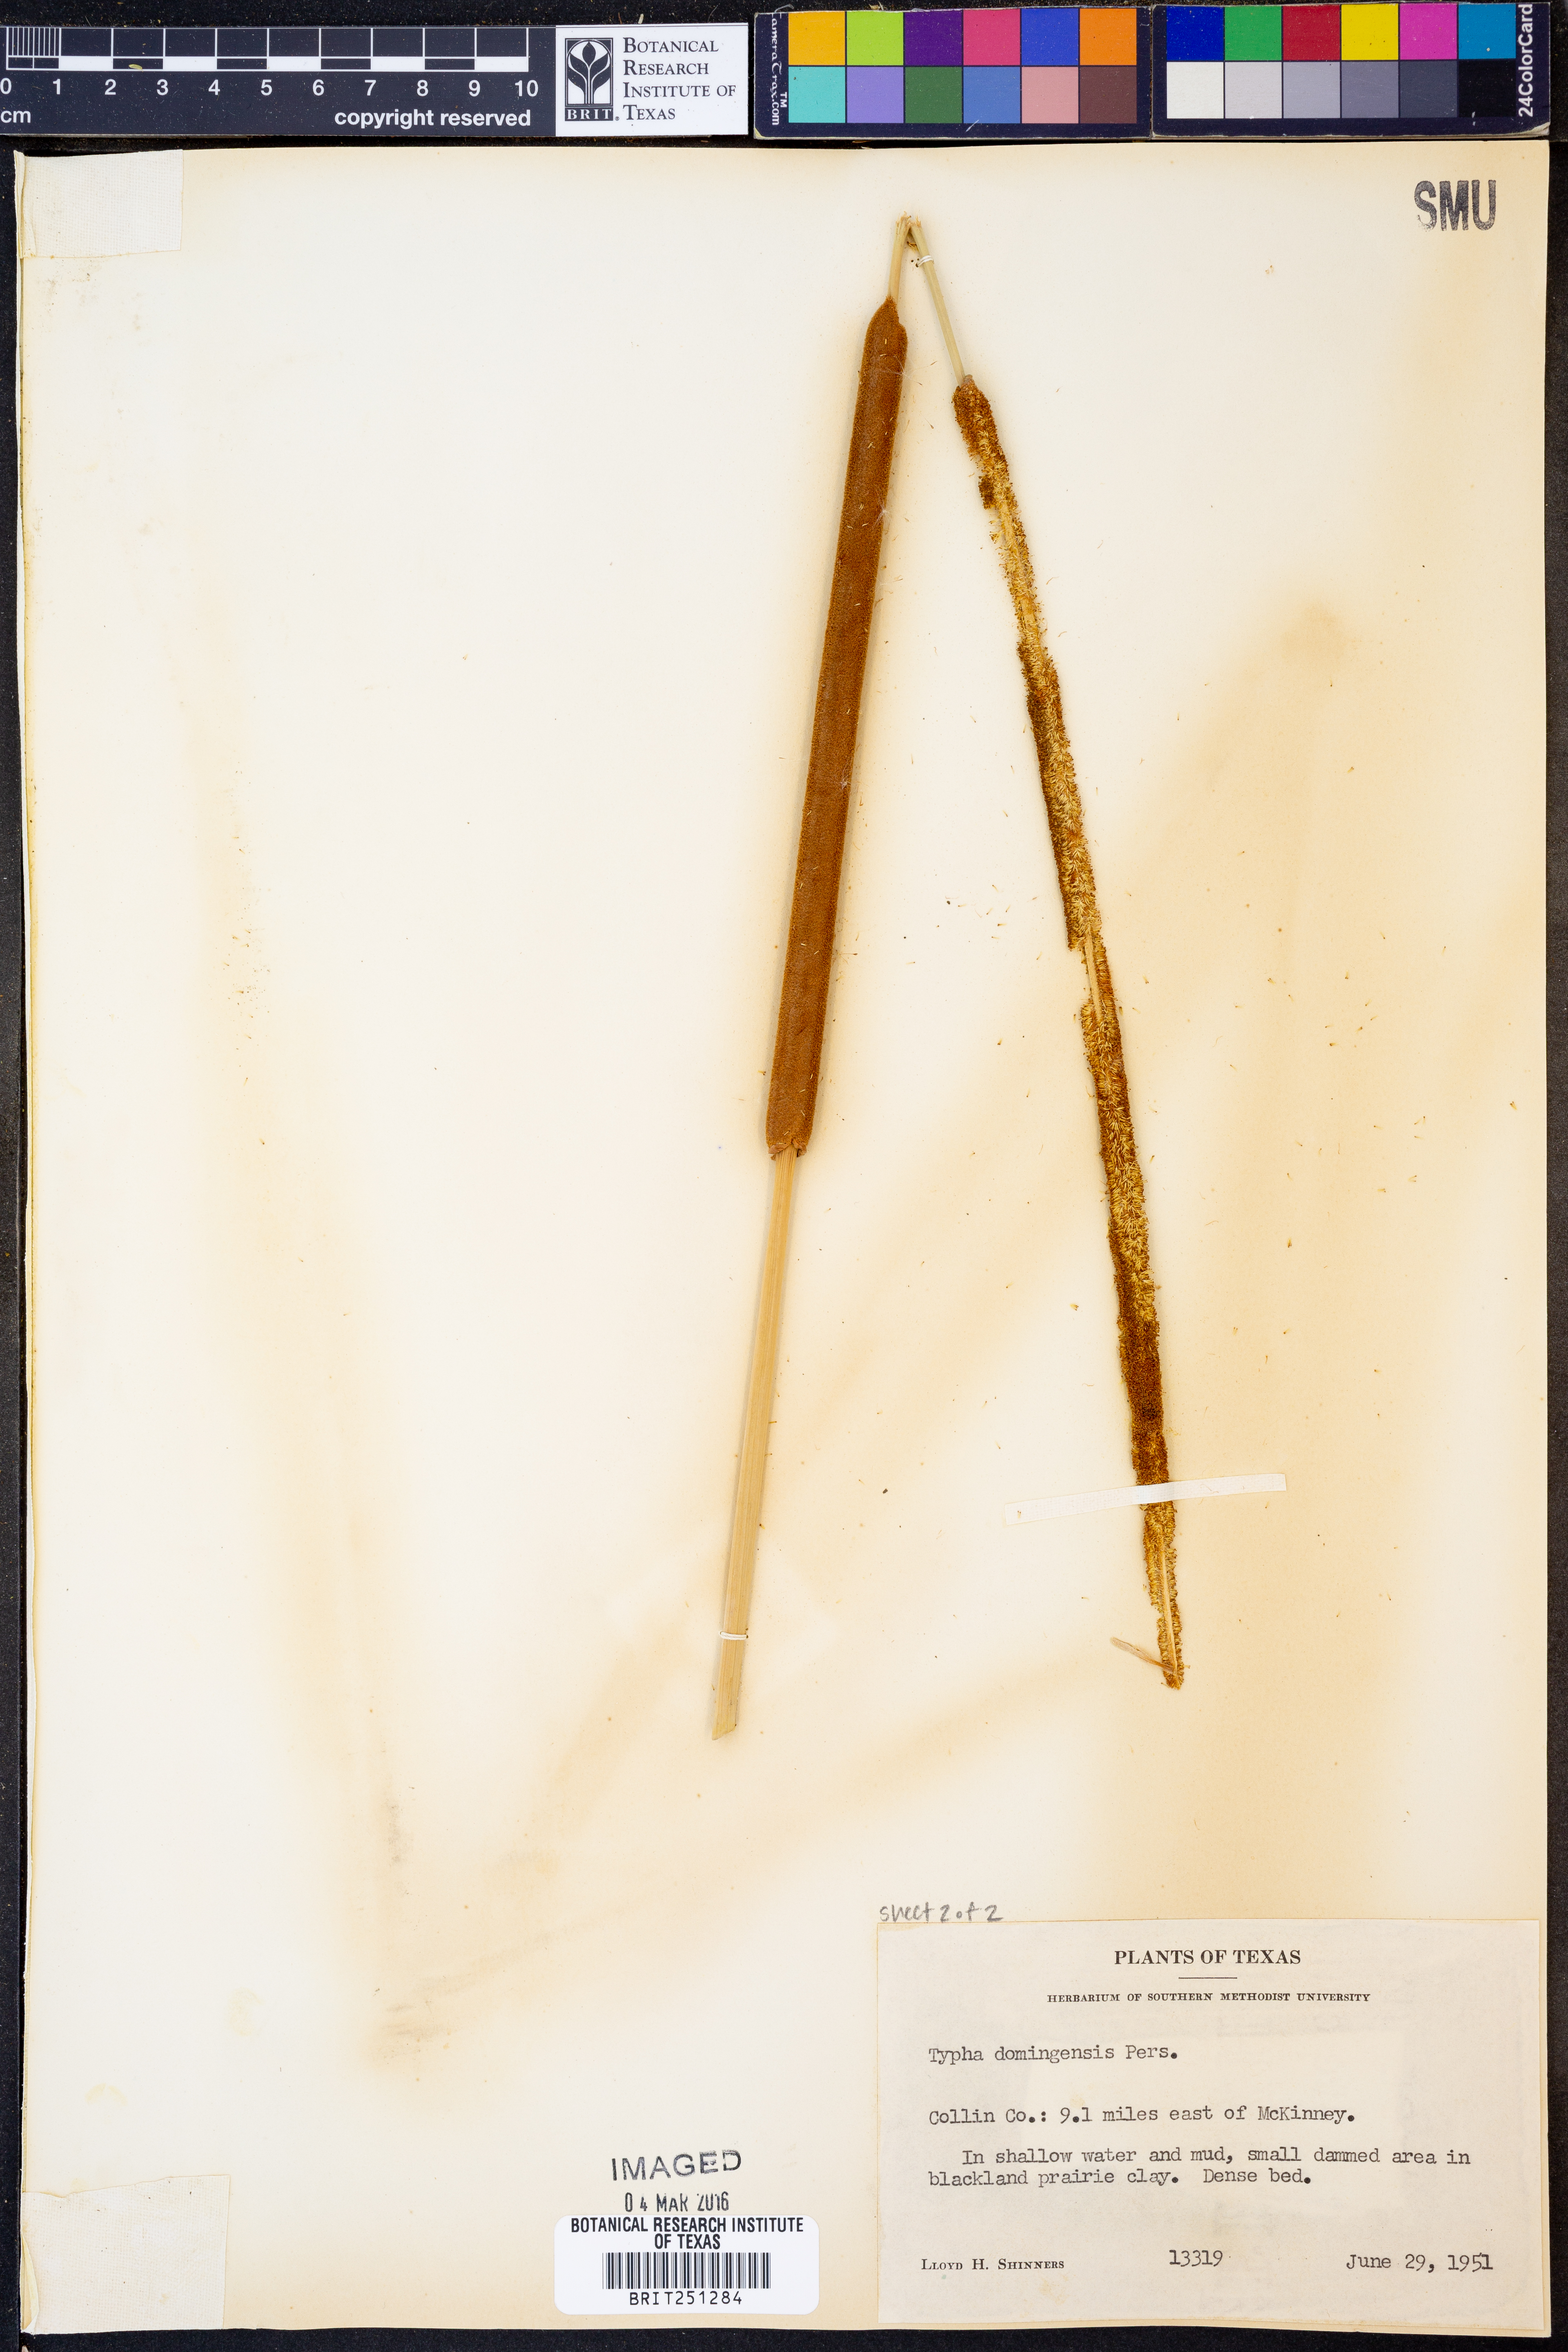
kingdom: Plantae
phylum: Tracheophyta
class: Liliopsida
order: Poales
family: Typhaceae
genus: Typha
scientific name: Typha domingensis
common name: Southern cattail
